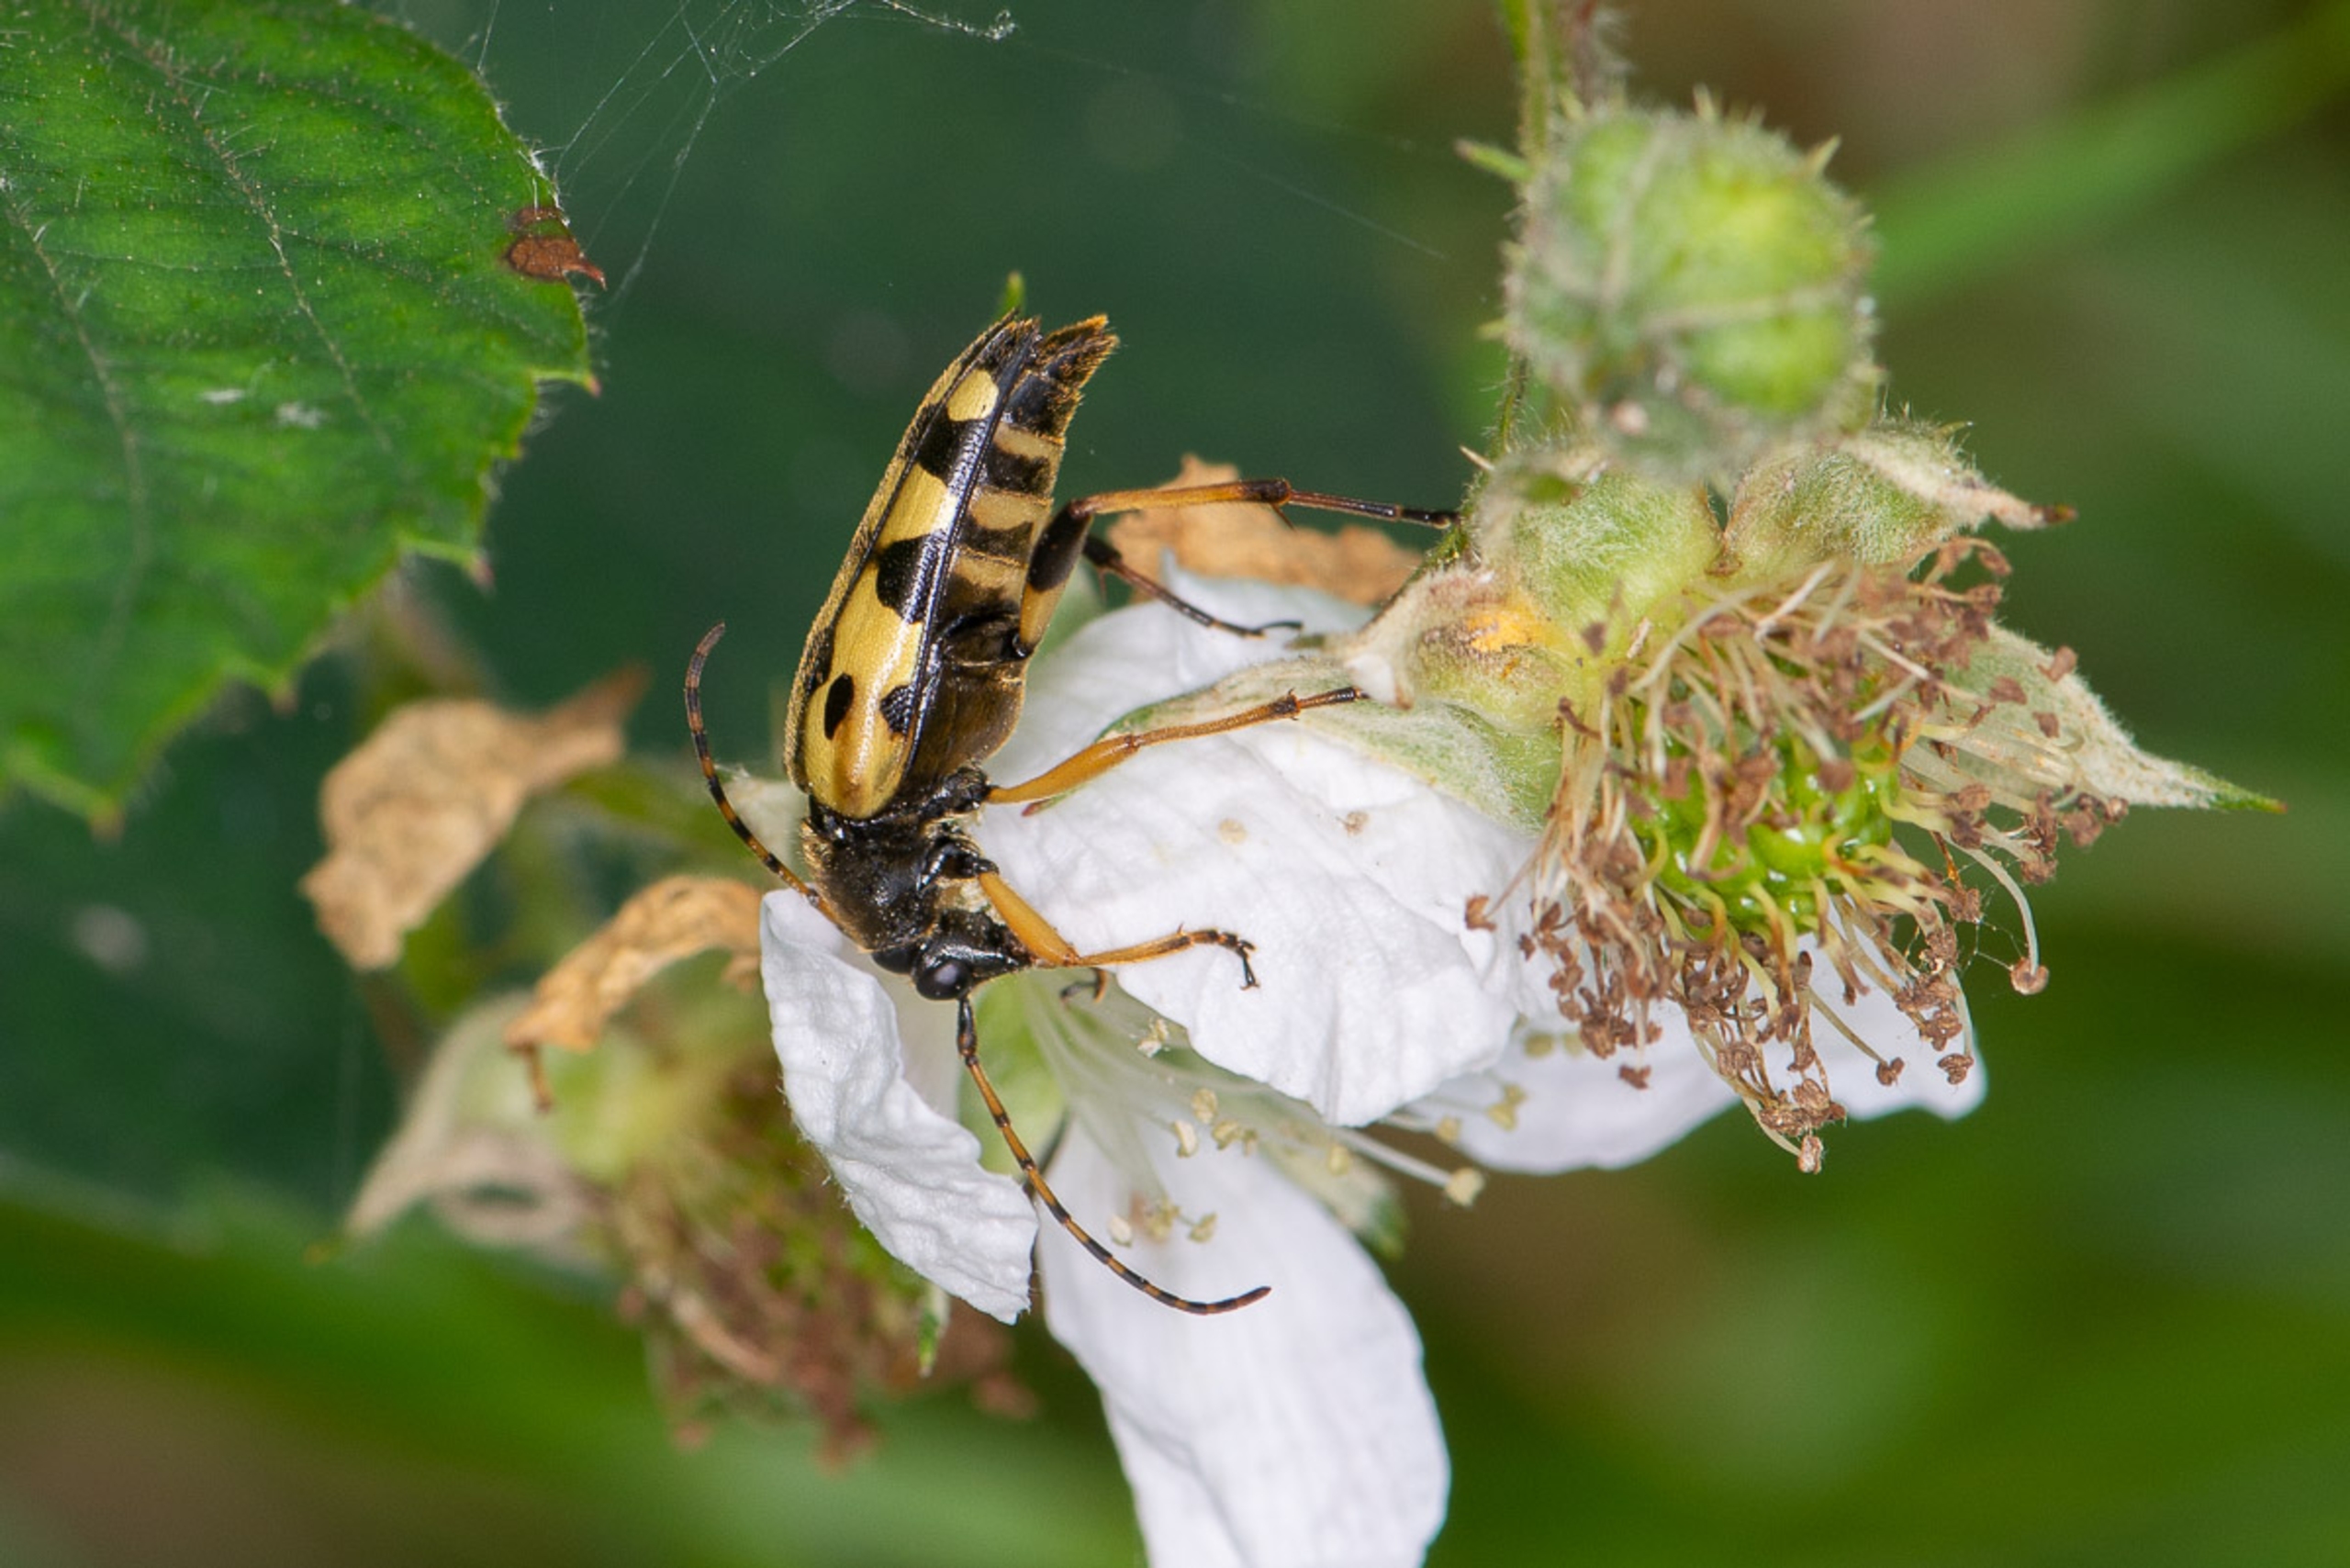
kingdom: Animalia
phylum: Arthropoda
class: Insecta
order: Coleoptera
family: Cerambycidae
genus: Rutpela
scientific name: Rutpela maculata
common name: Sydlig blomsterbuk
